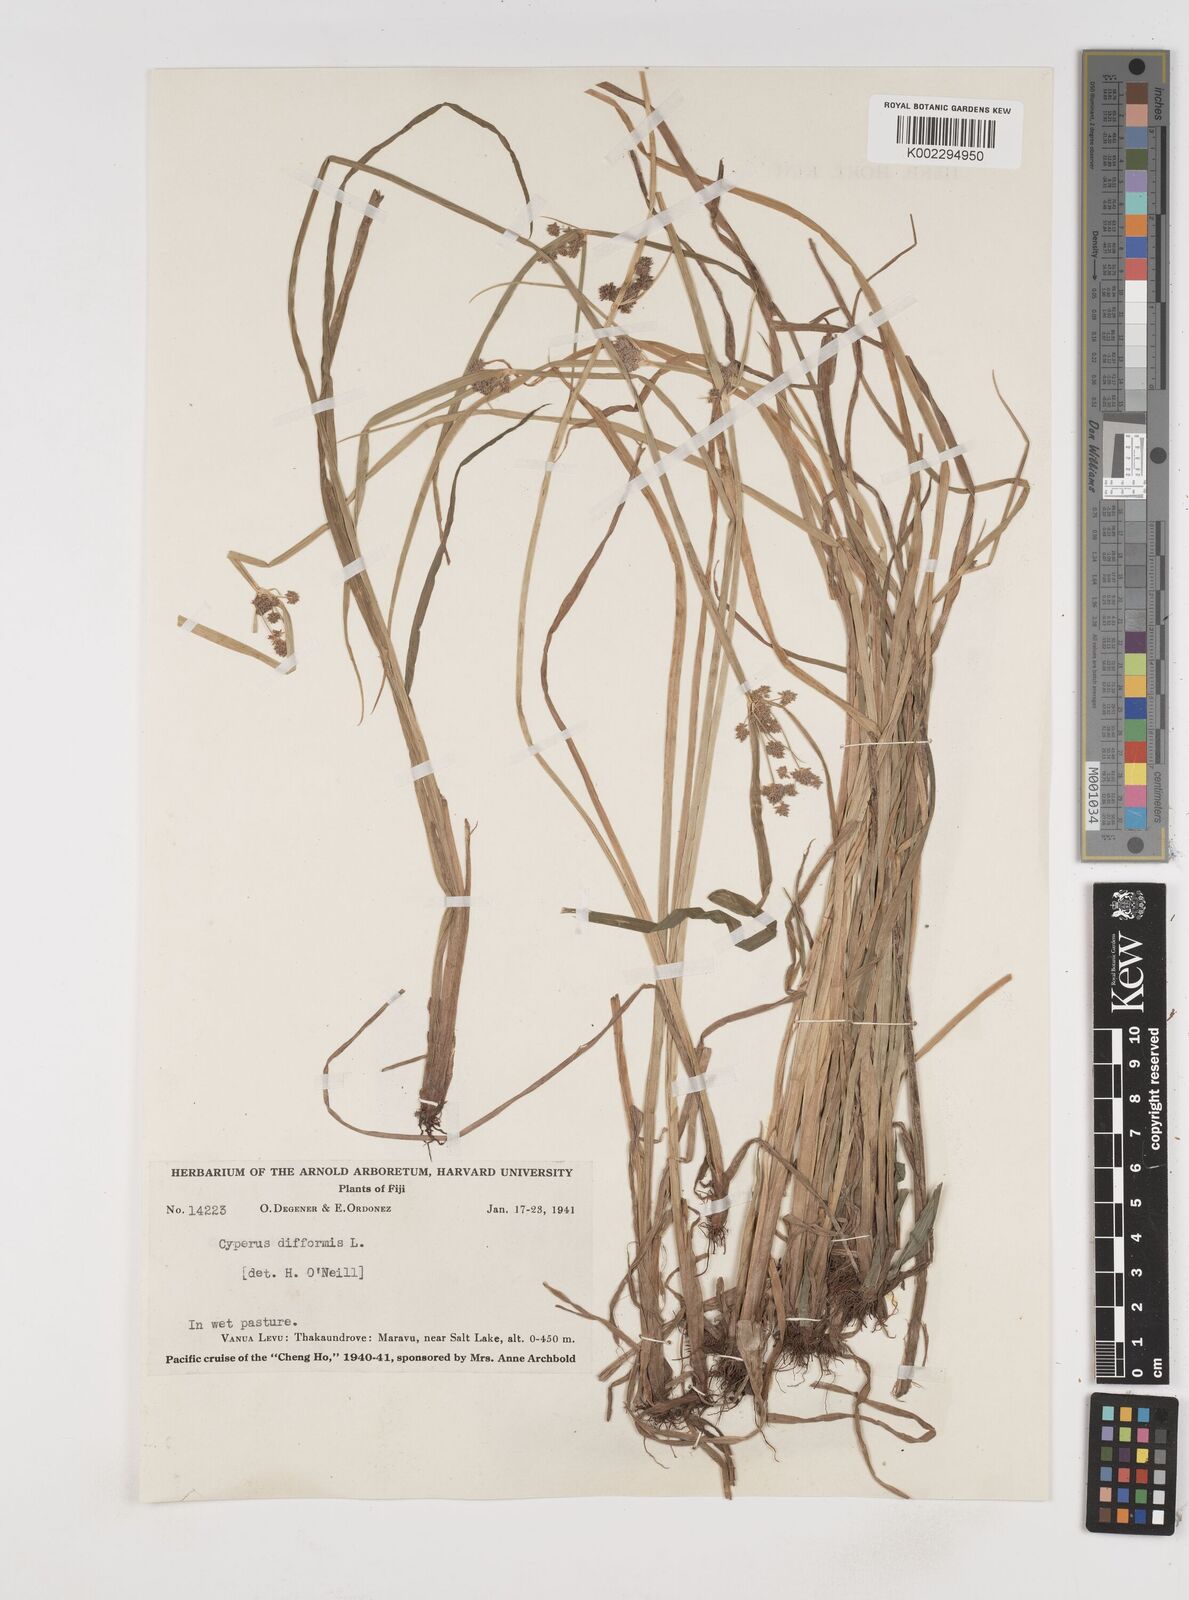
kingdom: Plantae
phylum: Tracheophyta
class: Liliopsida
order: Poales
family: Cyperaceae
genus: Cyperus
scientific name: Cyperus difformis
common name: Variable flatsedge
